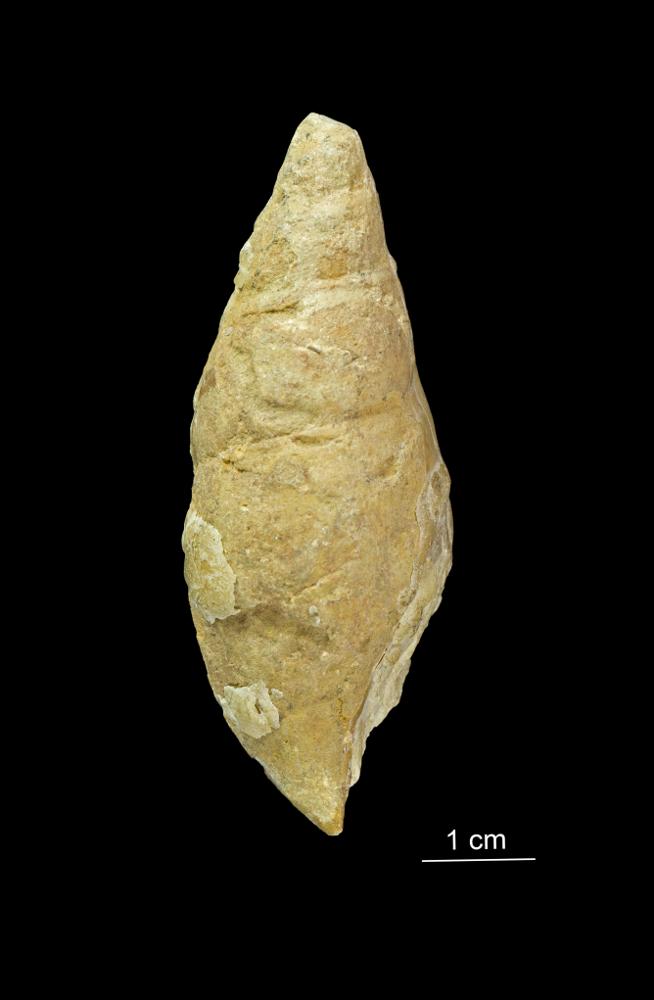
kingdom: Animalia
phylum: Mollusca
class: Gastropoda
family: Subulitidae
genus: Subulites
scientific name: Subulites amphora
